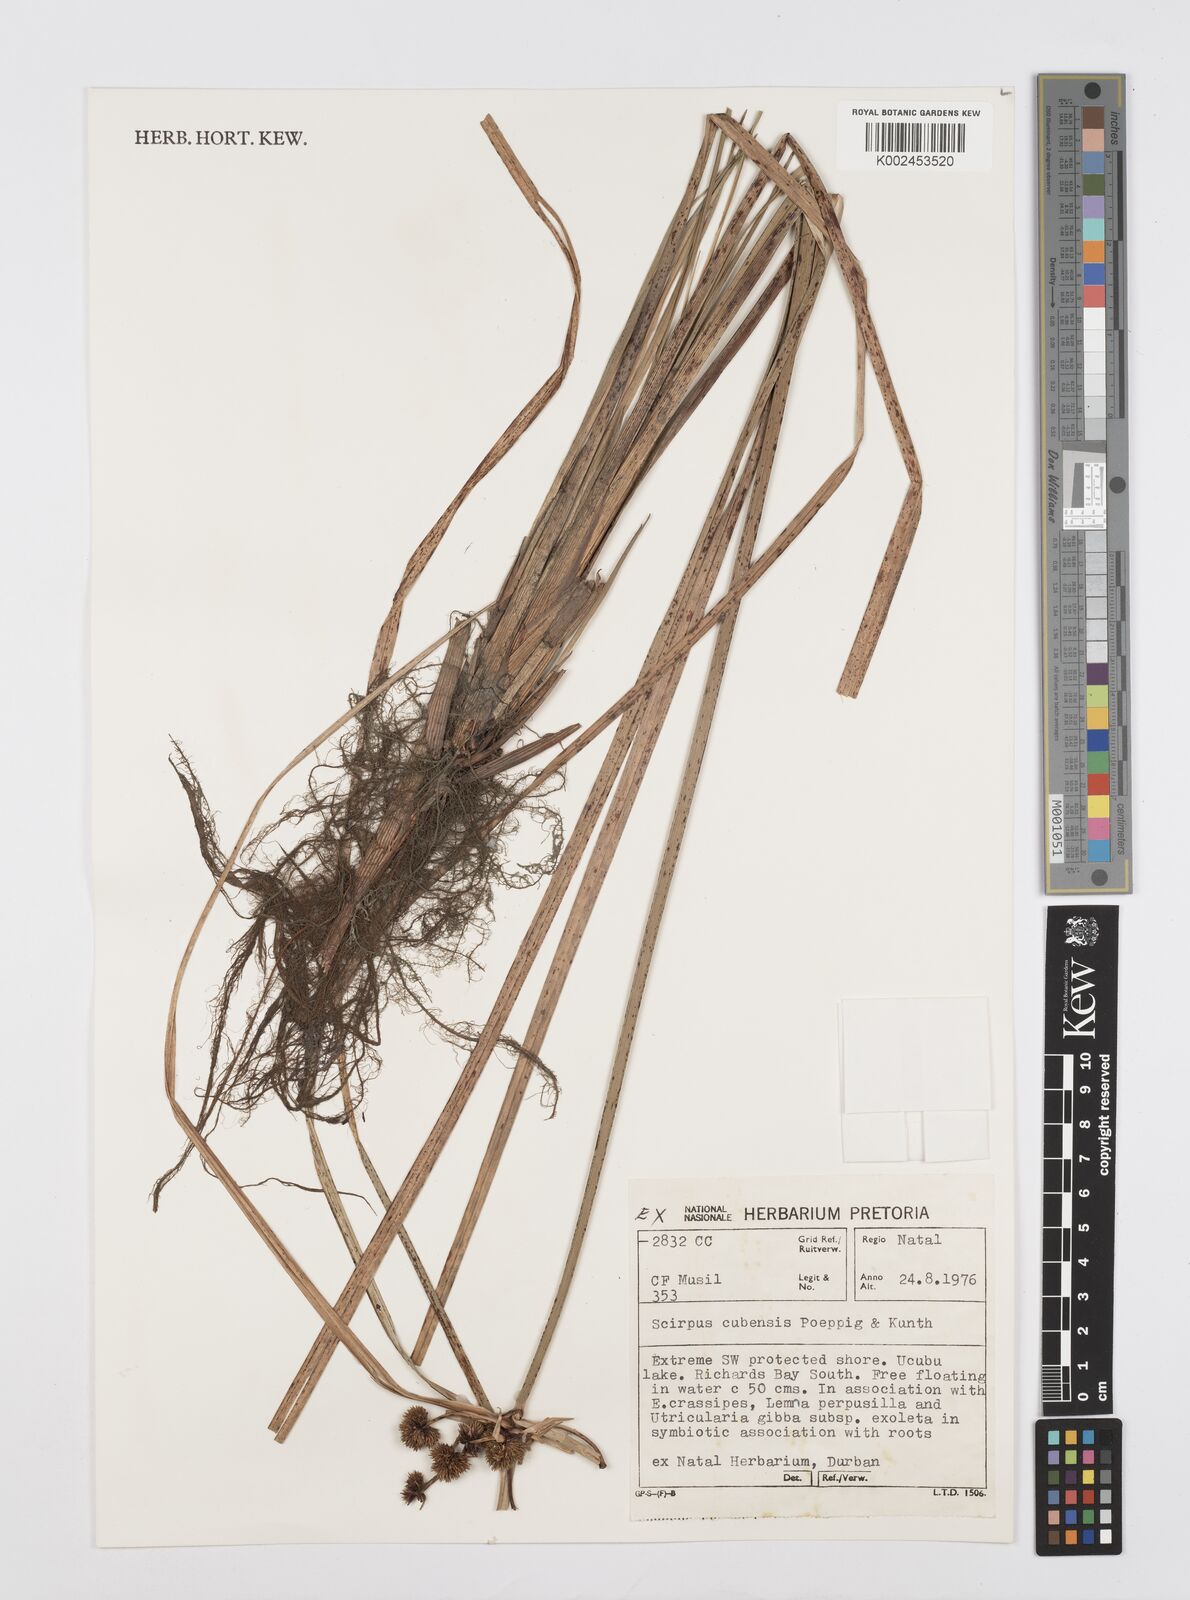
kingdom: Plantae
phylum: Tracheophyta
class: Liliopsida
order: Poales
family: Cyperaceae
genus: Cyperus
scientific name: Cyperus elegans
